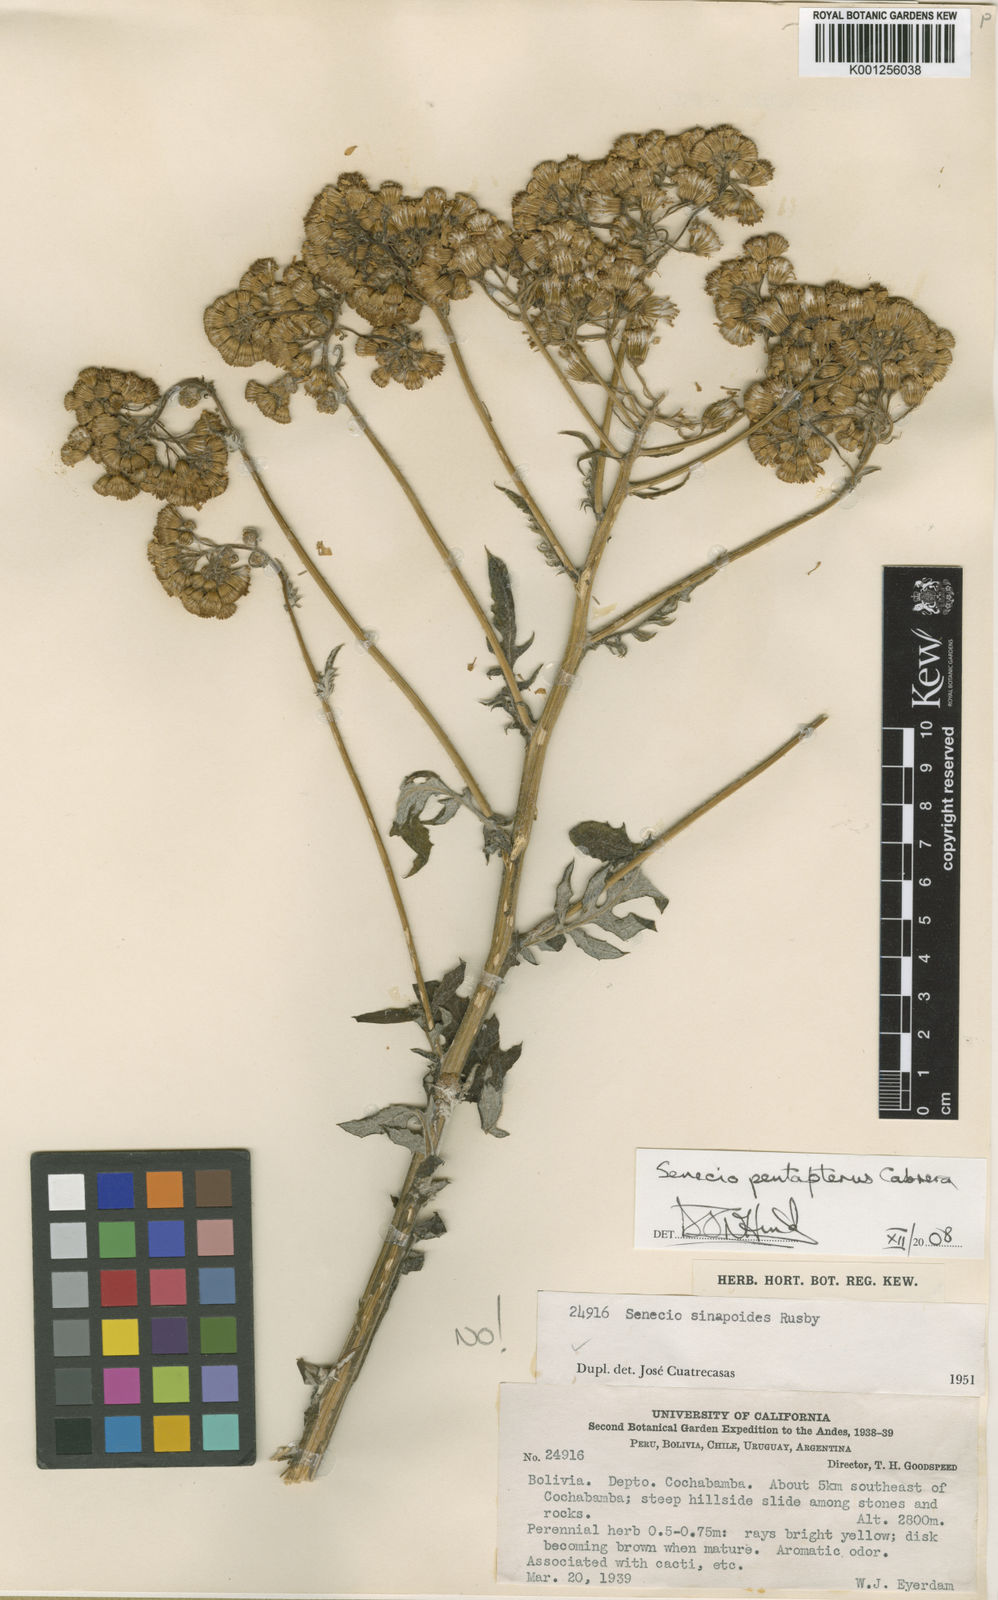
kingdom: Plantae
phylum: Tracheophyta
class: Magnoliopsida
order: Asterales
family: Asteraceae
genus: Senecio
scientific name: Senecio pentapterus
